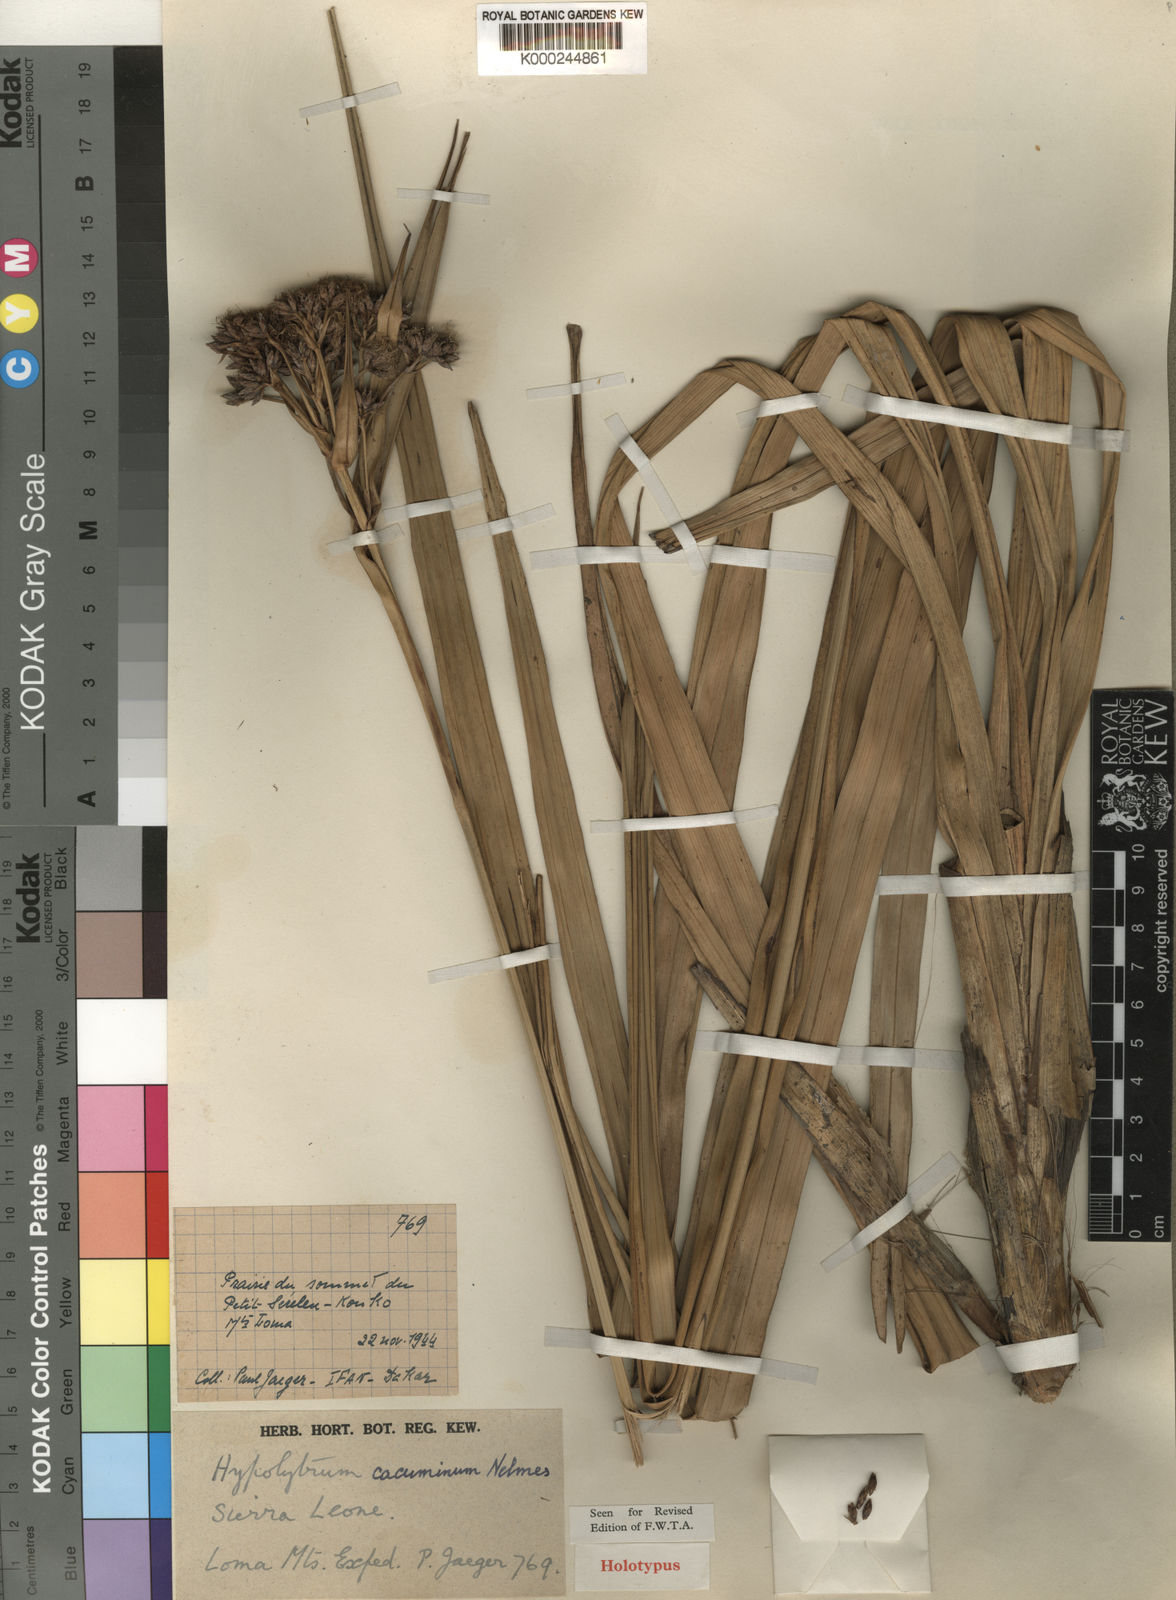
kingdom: Plantae
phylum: Tracheophyta
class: Liliopsida
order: Poales
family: Cyperaceae
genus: Hypolytrum
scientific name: Hypolytrum cacuminum
